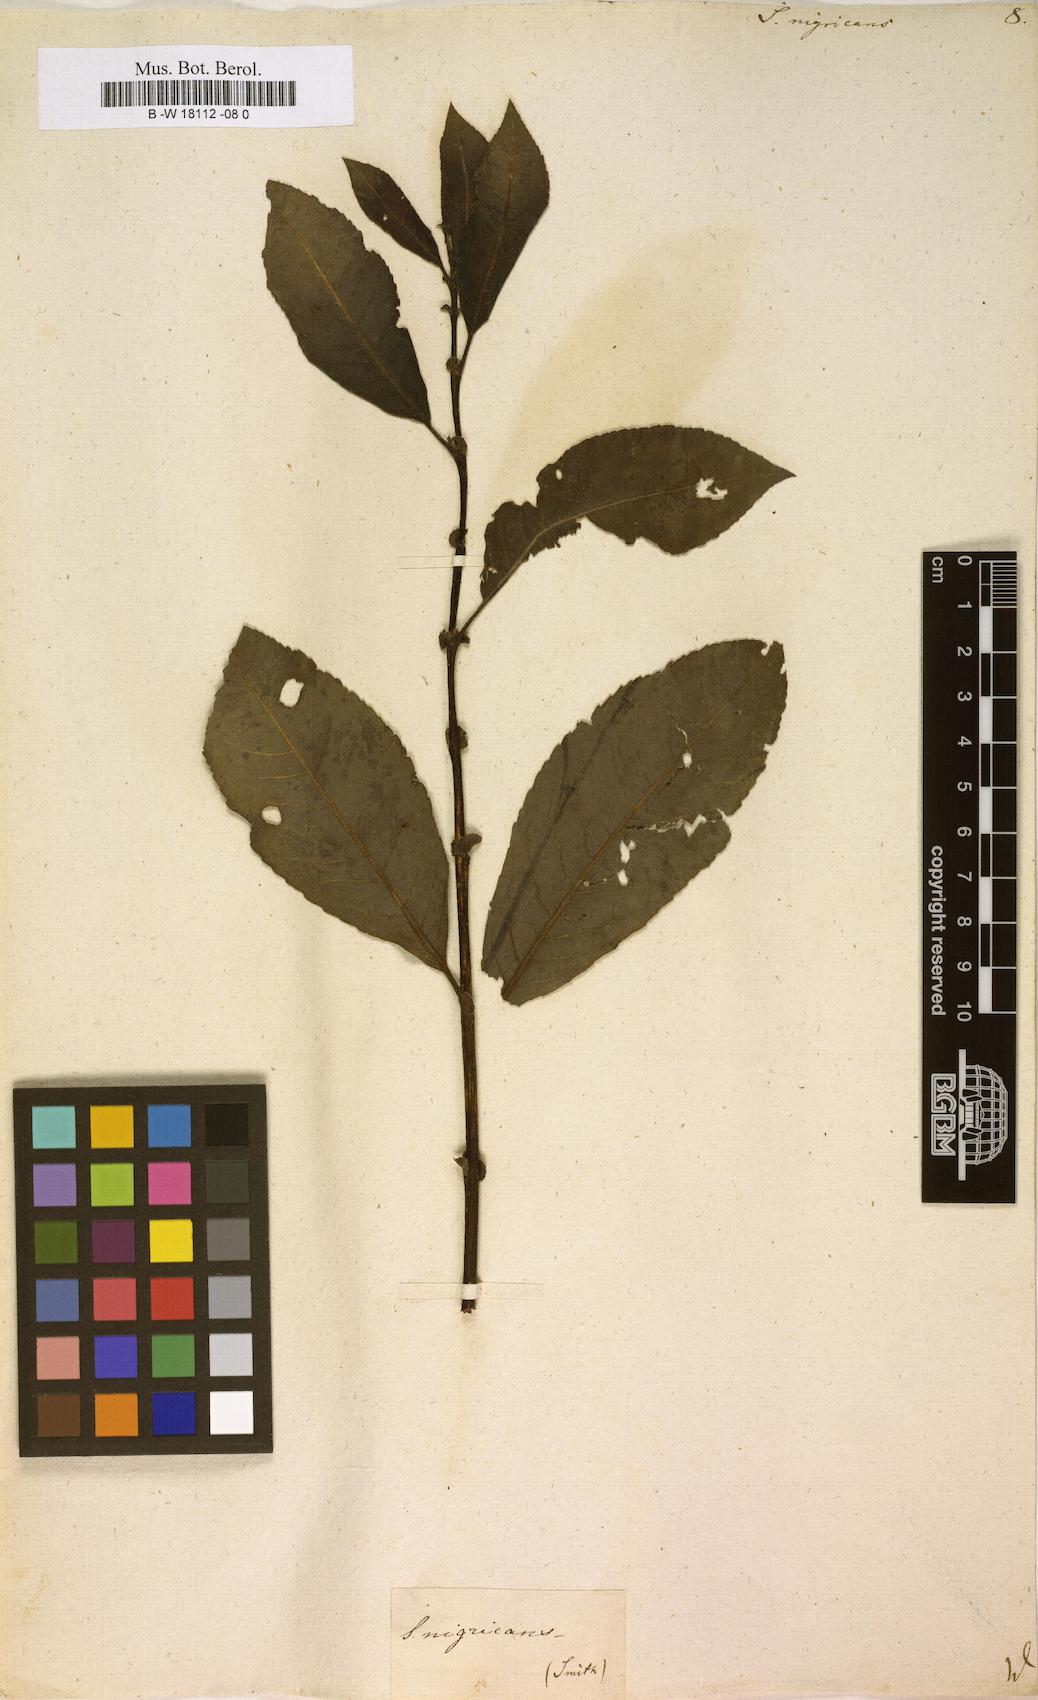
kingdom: Plantae
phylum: Tracheophyta
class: Magnoliopsida
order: Malpighiales
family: Salicaceae
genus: Salix
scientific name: Salix myrsinifolia
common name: Dark-leaved willow
